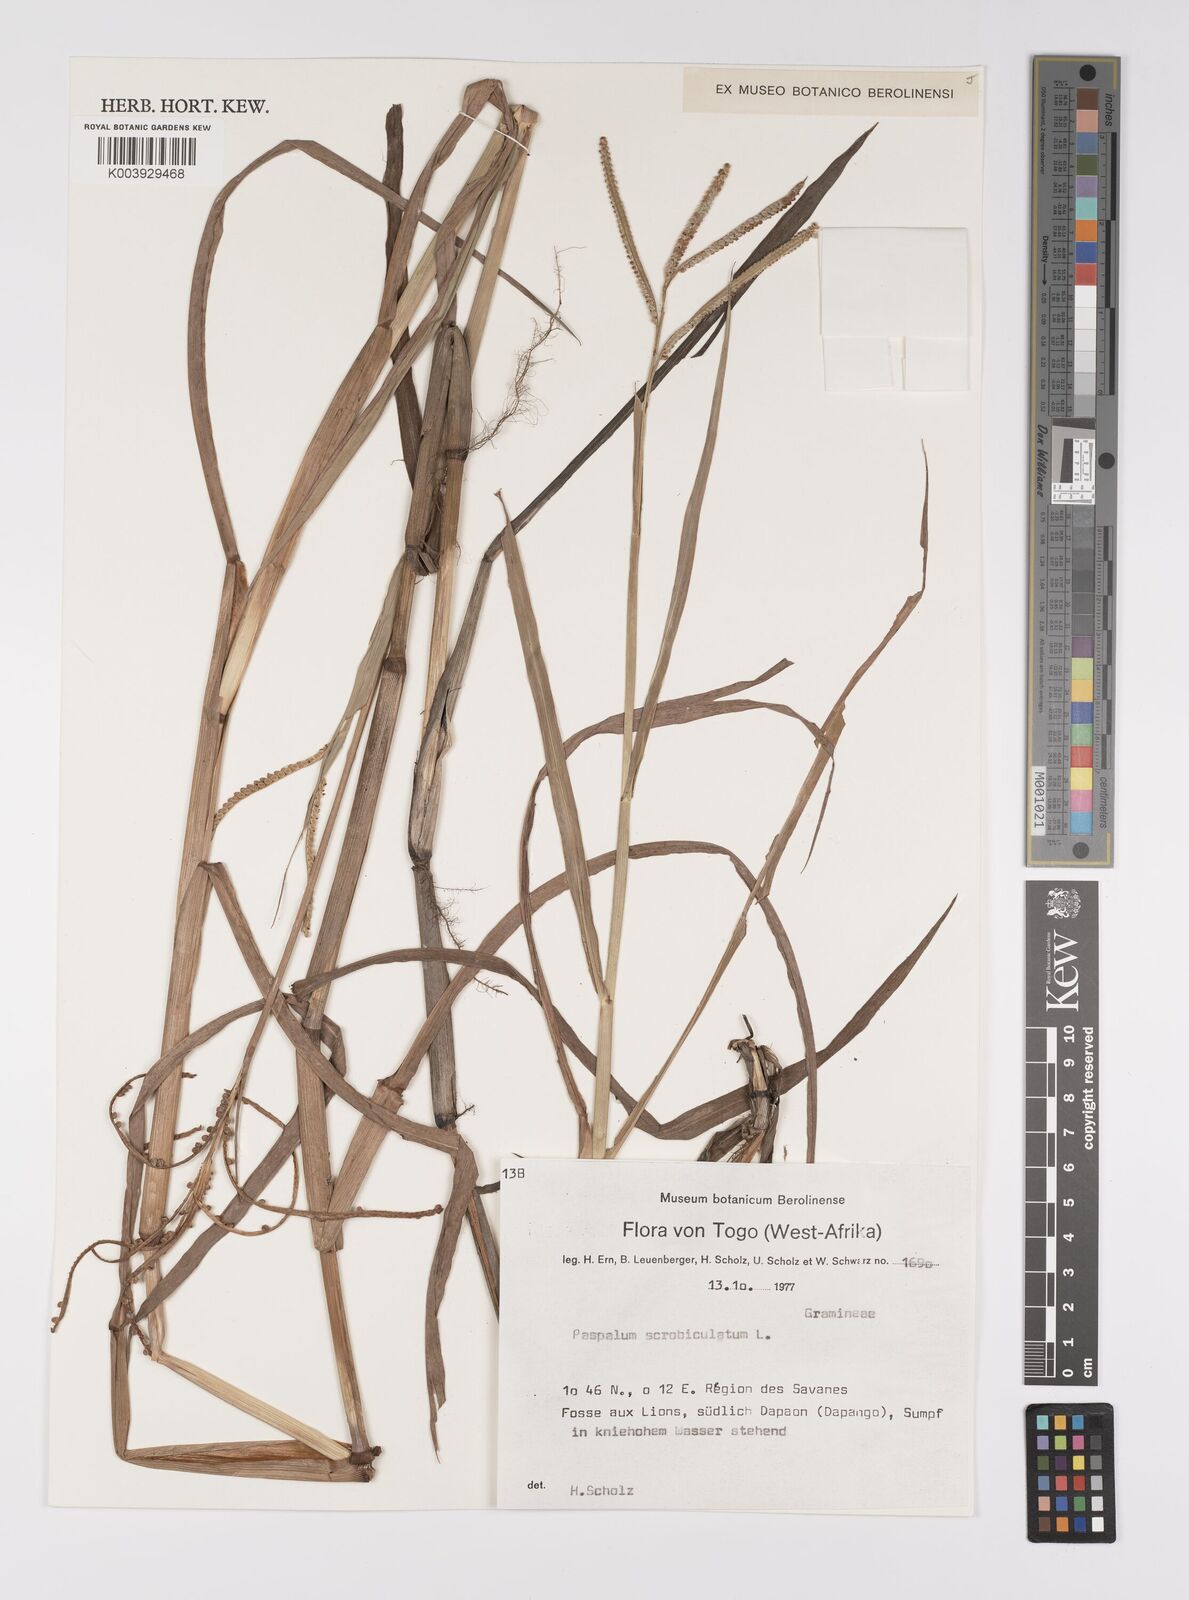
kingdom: Plantae
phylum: Tracheophyta
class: Liliopsida
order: Poales
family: Poaceae
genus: Paspalum
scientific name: Paspalum scrobiculatum
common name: Kodo millet
